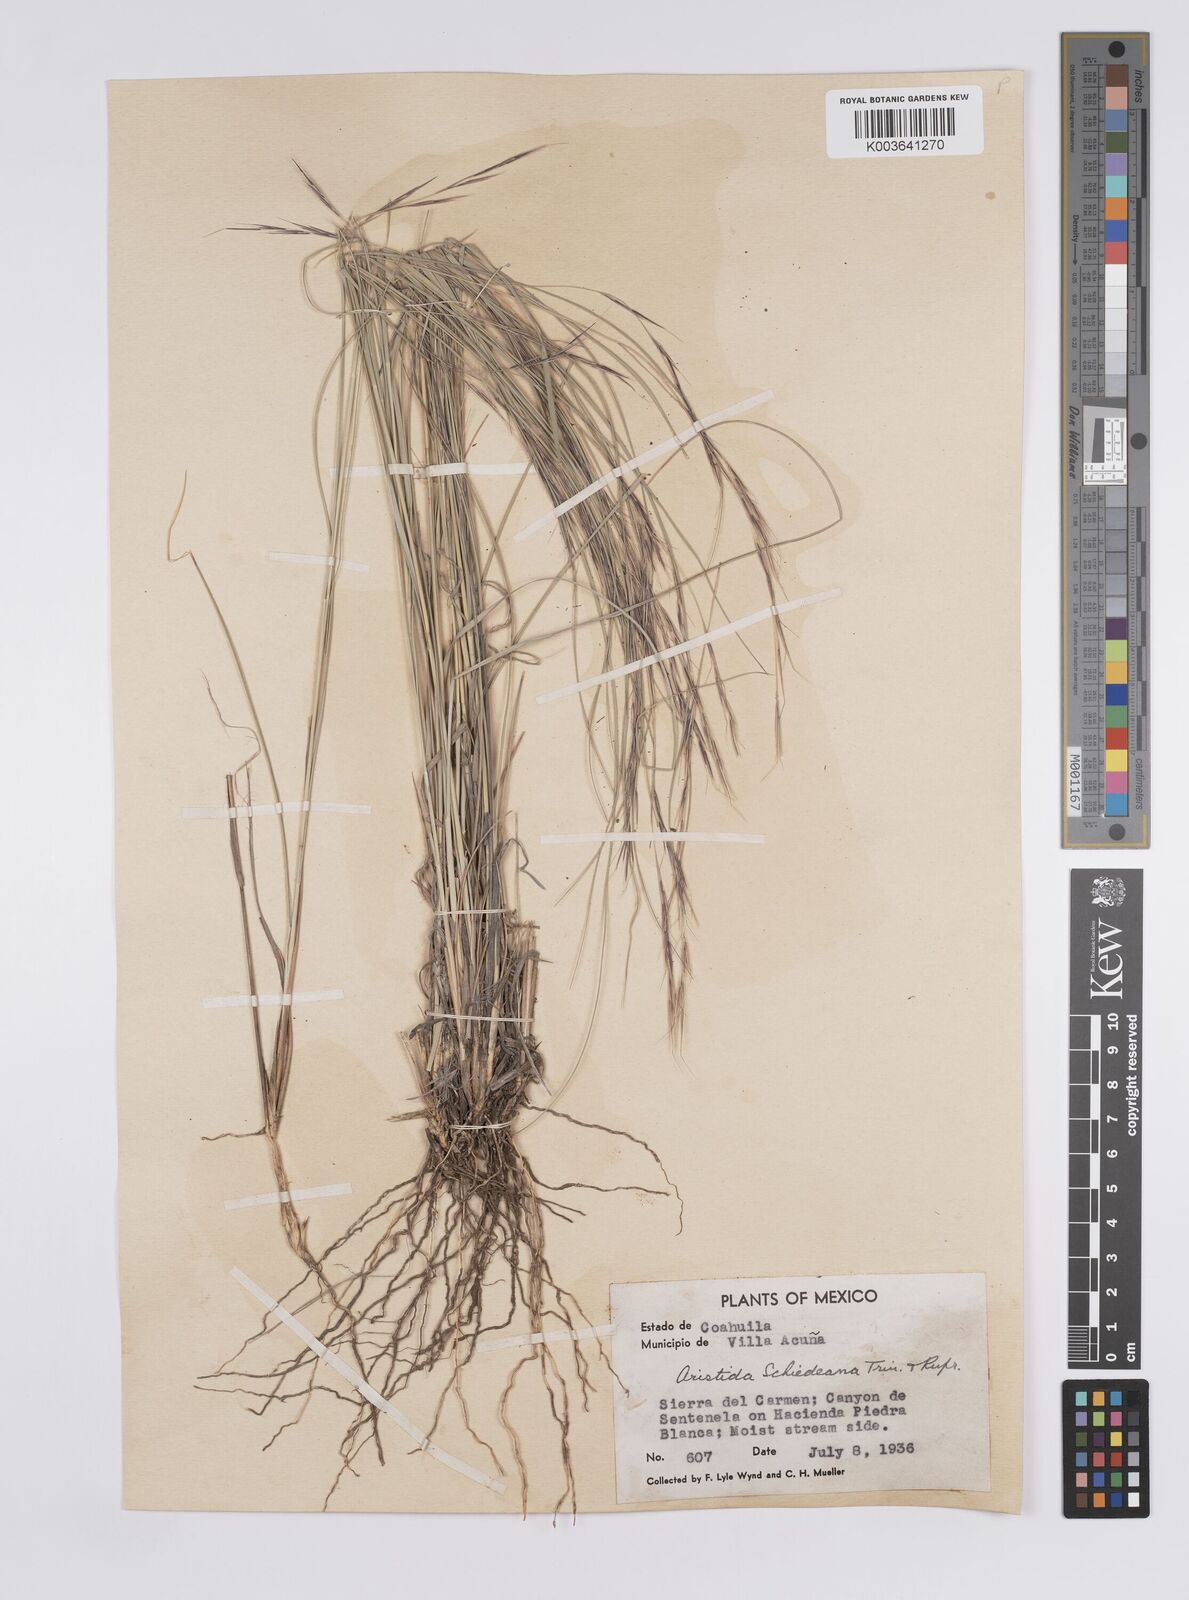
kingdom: Plantae
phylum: Tracheophyta
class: Liliopsida
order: Poales
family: Poaceae
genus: Aristida
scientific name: Aristida schiedeana
